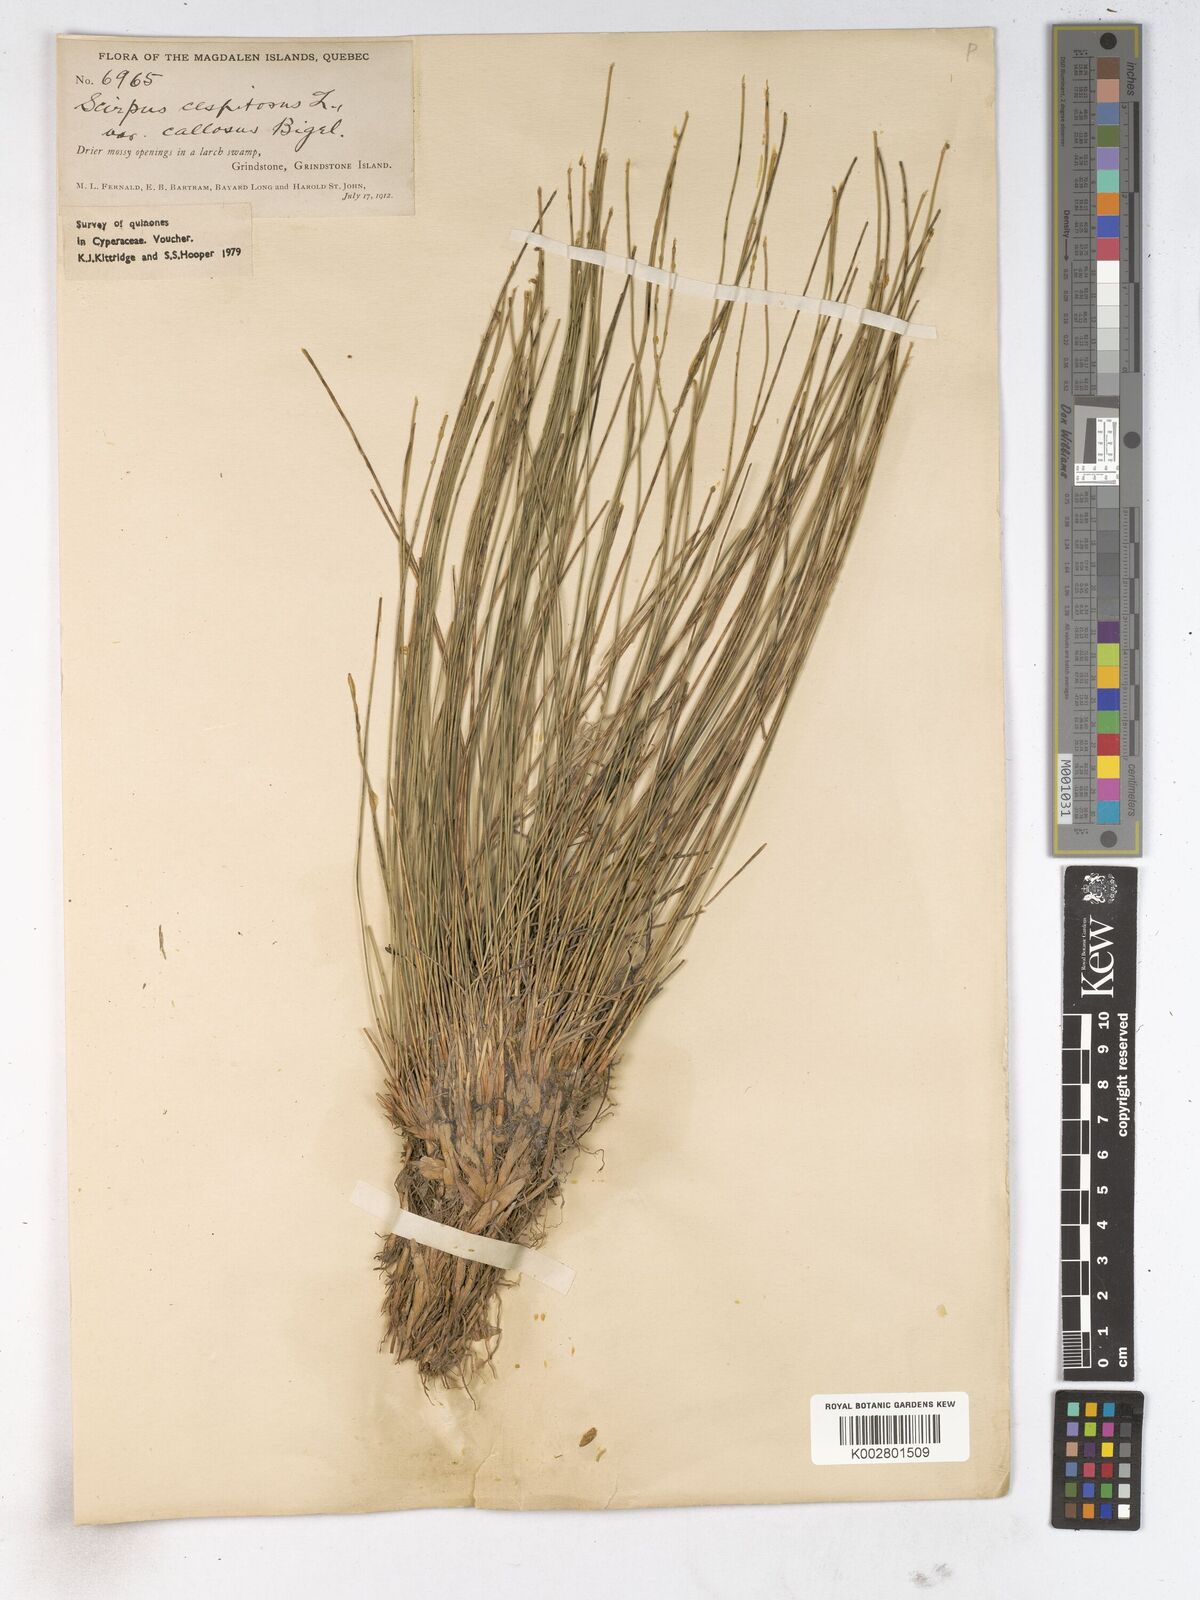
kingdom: Plantae
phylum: Tracheophyta
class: Liliopsida
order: Poales
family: Cyperaceae
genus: Trichophorum
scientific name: Trichophorum cespitosum
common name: Cespitose bulrush
